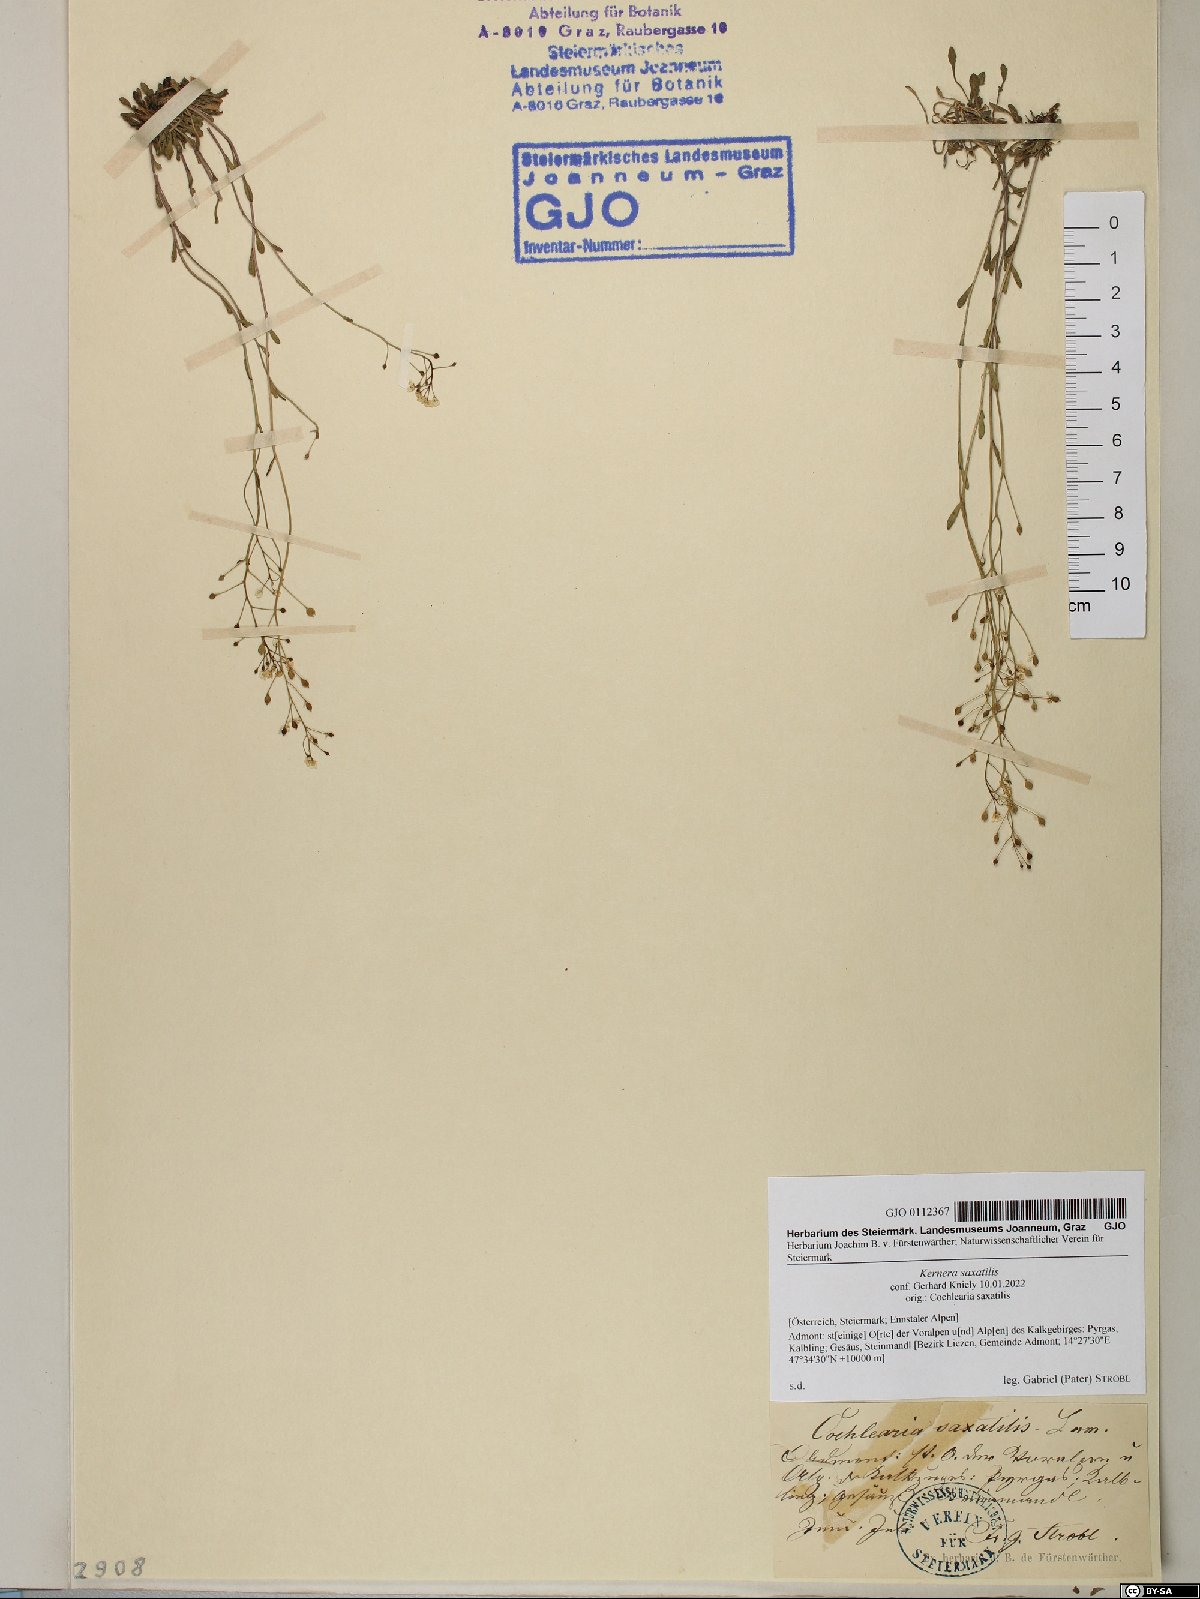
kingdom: Plantae
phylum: Tracheophyta
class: Magnoliopsida
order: Brassicales
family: Brassicaceae
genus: Kernera
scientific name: Kernera saxatilis
